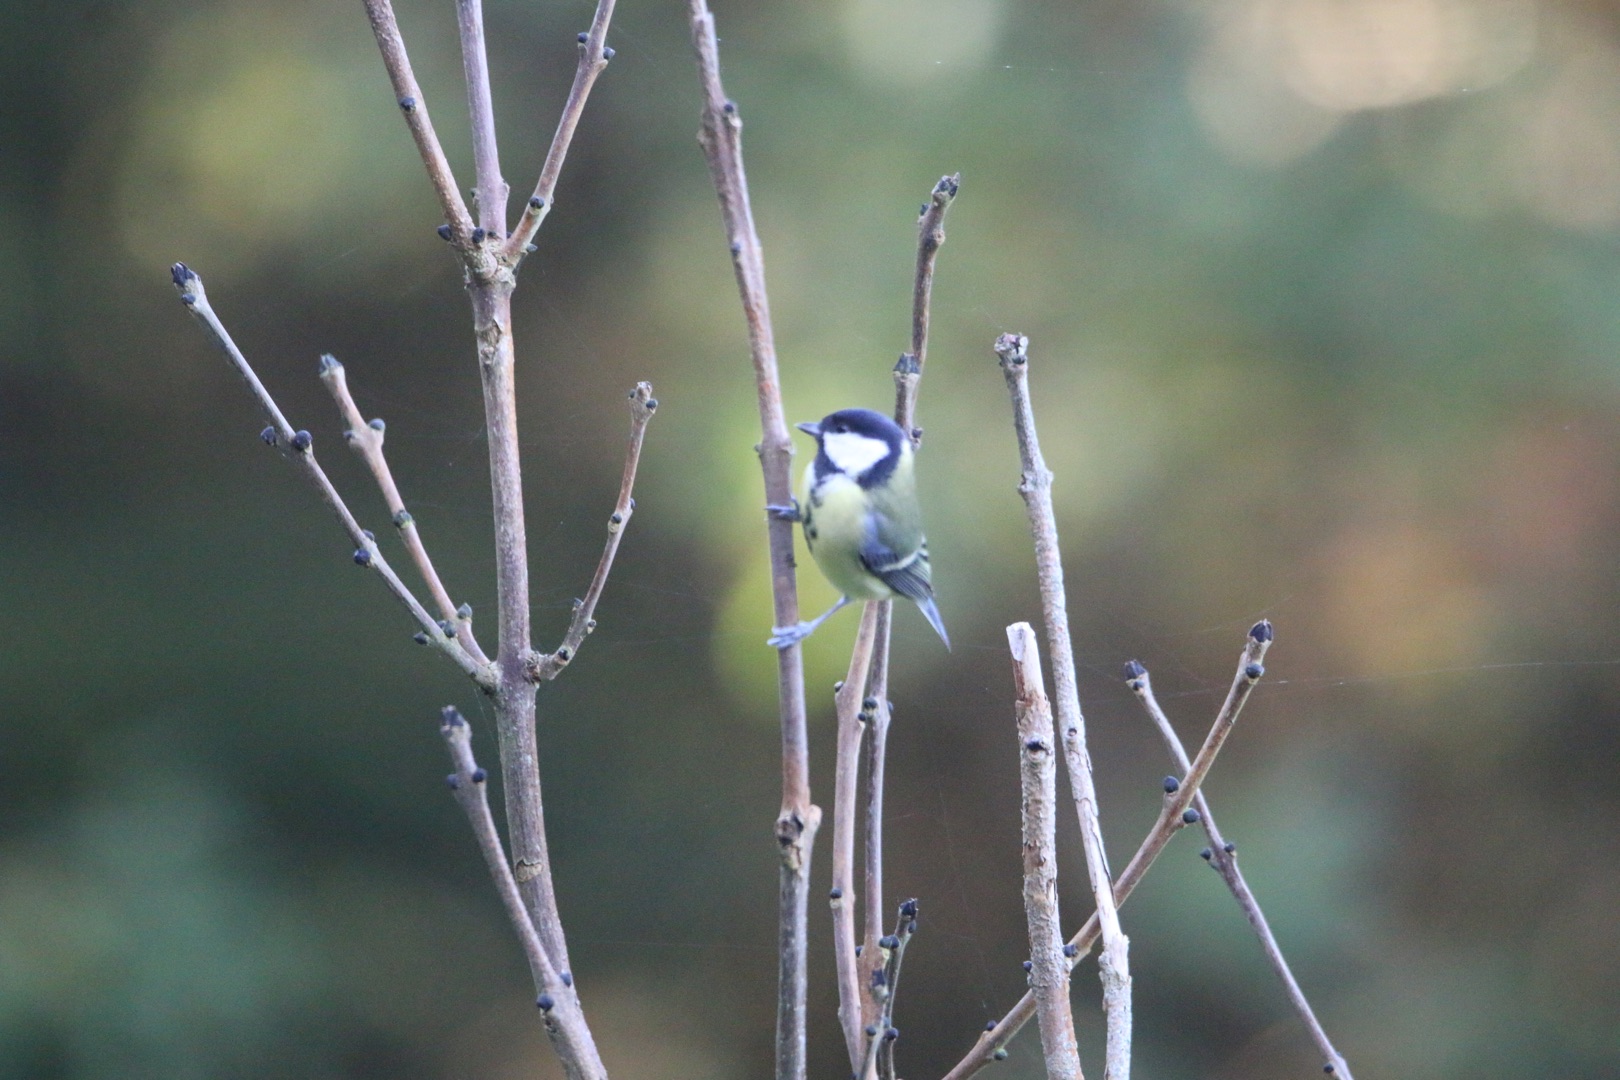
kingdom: Animalia
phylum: Chordata
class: Aves
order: Passeriformes
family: Paridae
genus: Parus
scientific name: Parus major
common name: Musvit
